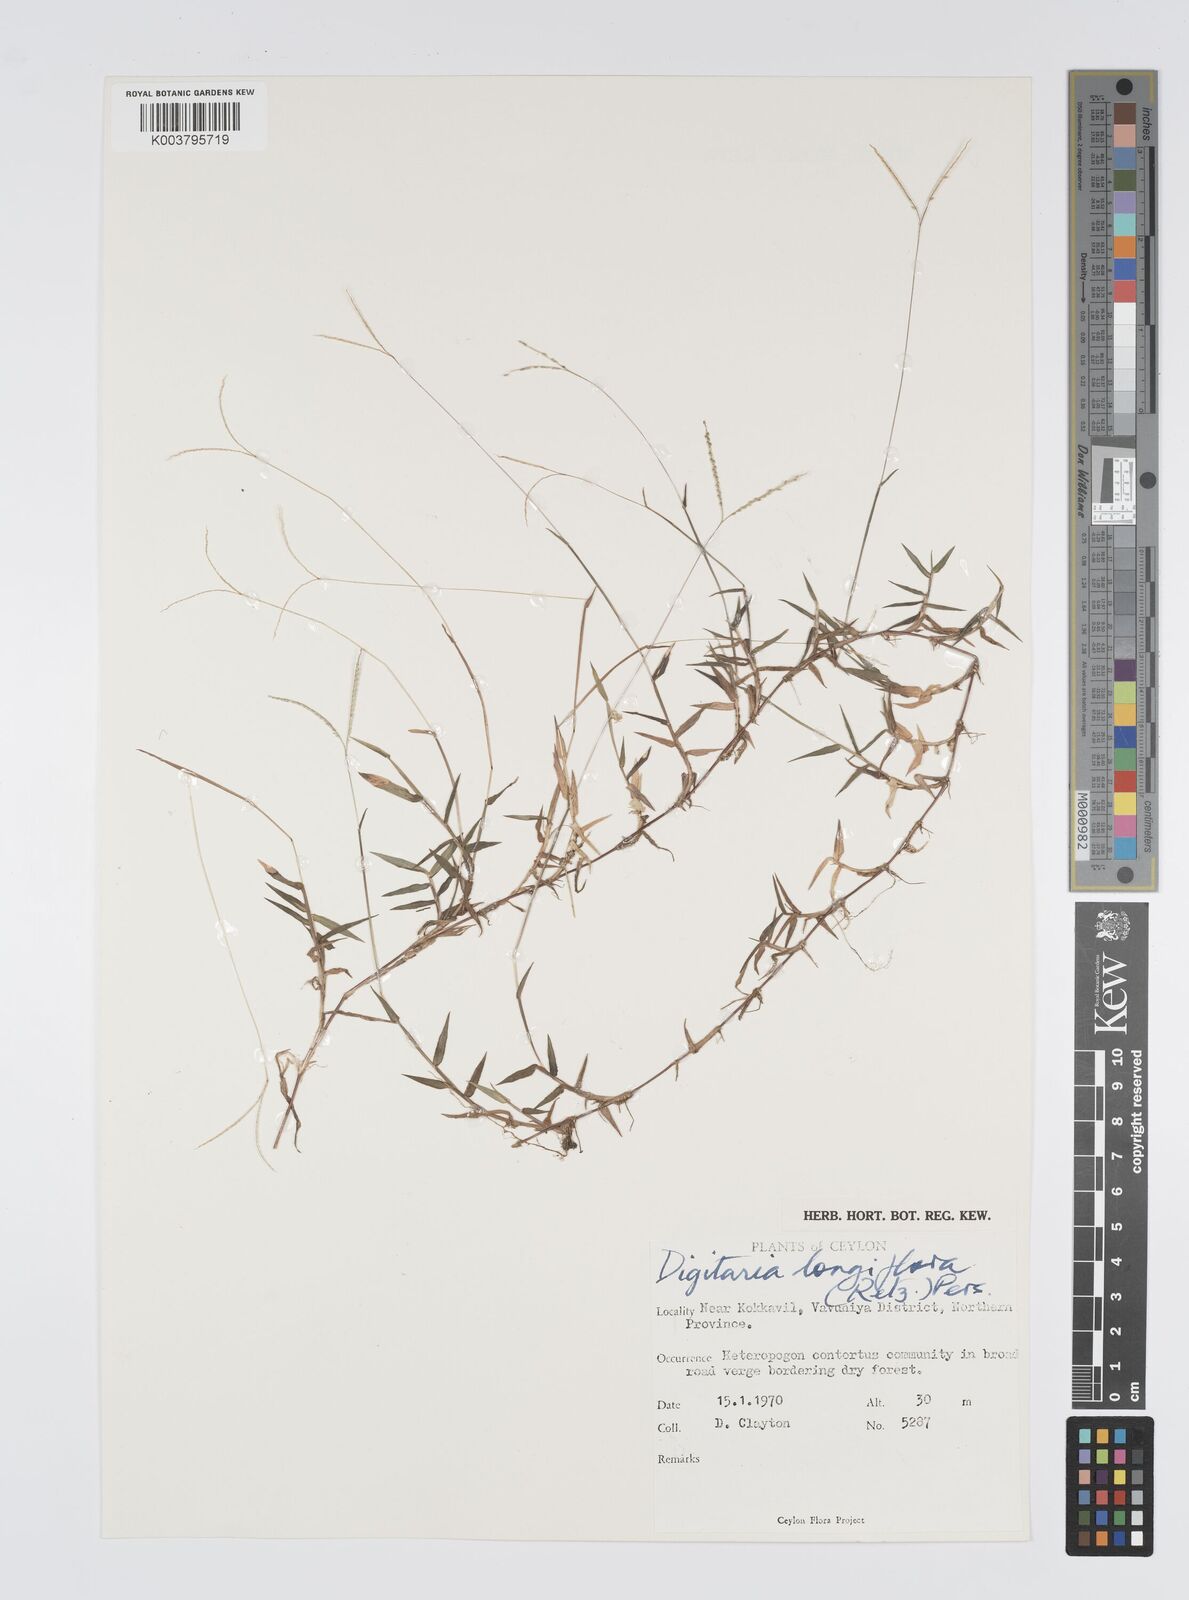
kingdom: Plantae
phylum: Tracheophyta
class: Liliopsida
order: Poales
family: Poaceae
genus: Digitaria
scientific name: Digitaria longiflora
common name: Wire crabgrass
